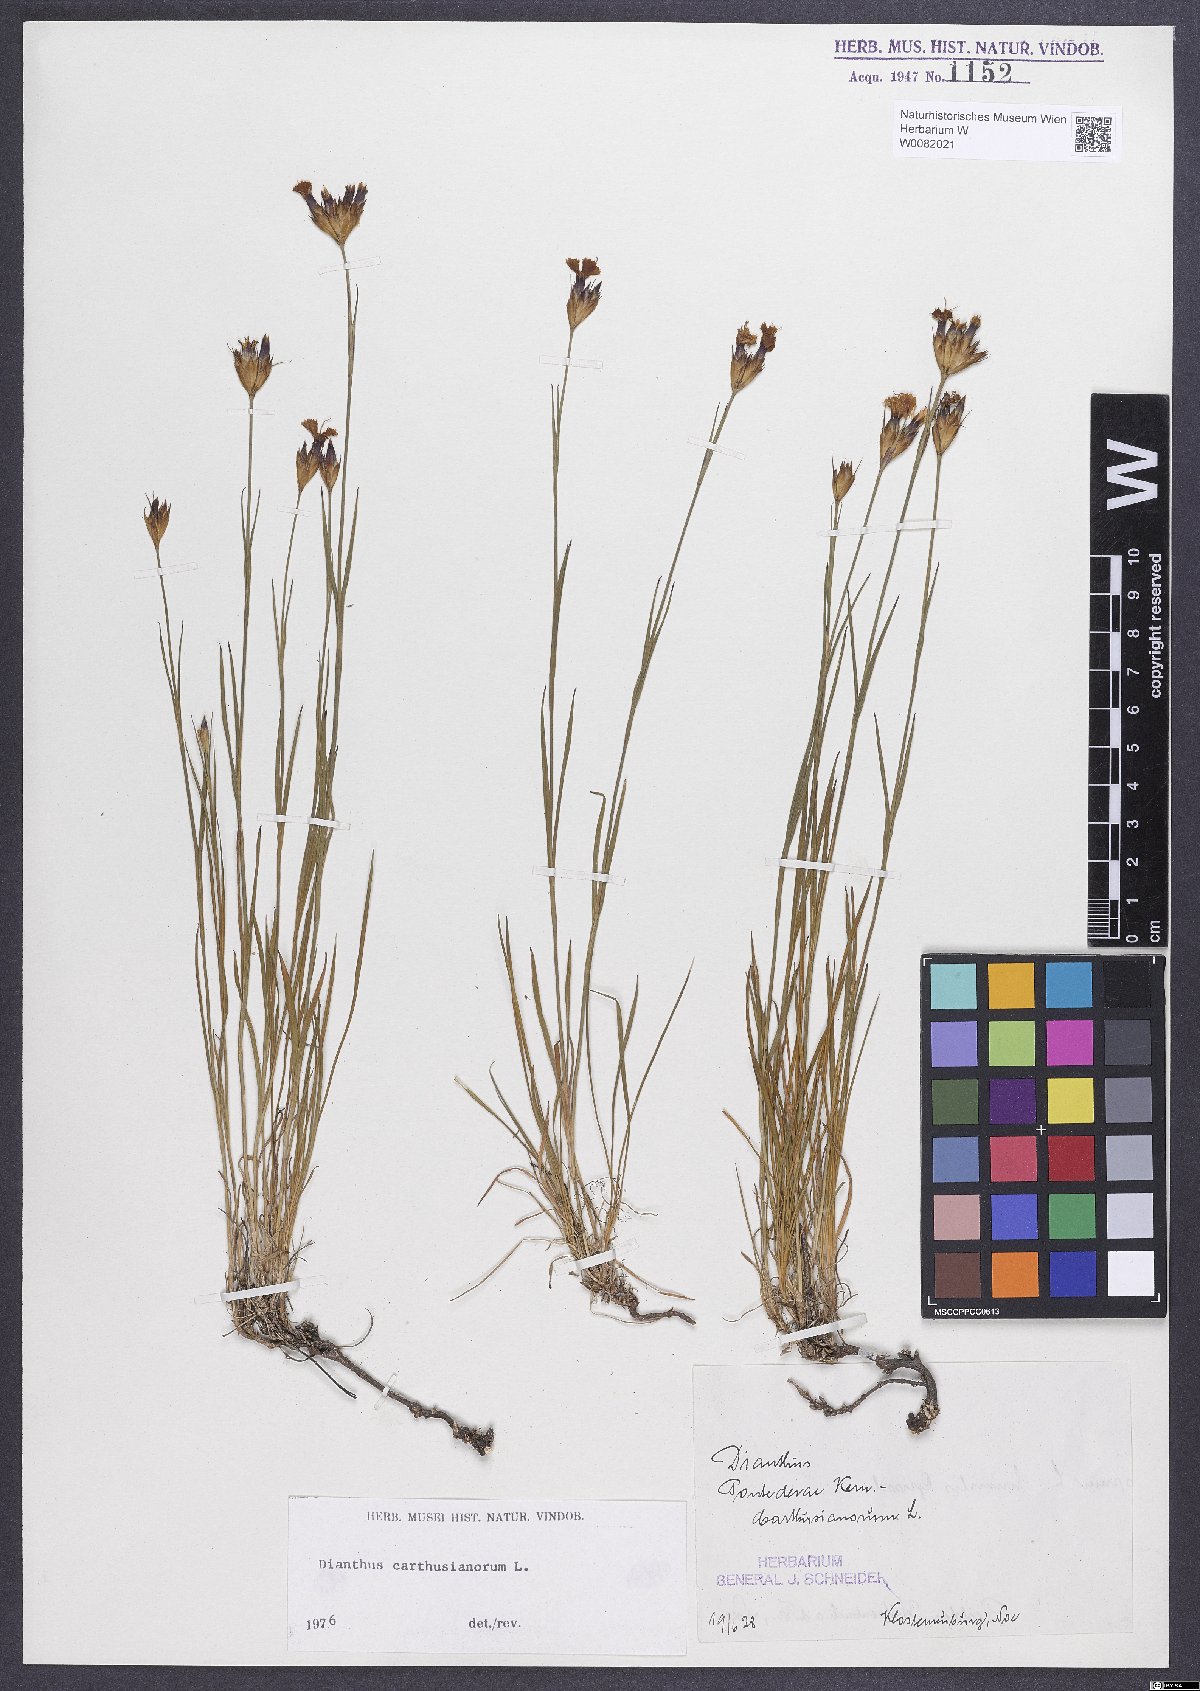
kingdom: Plantae
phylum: Tracheophyta
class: Magnoliopsida
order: Caryophyllales
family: Caryophyllaceae
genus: Dianthus
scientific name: Dianthus carthusianorum
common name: Carthusian pink
